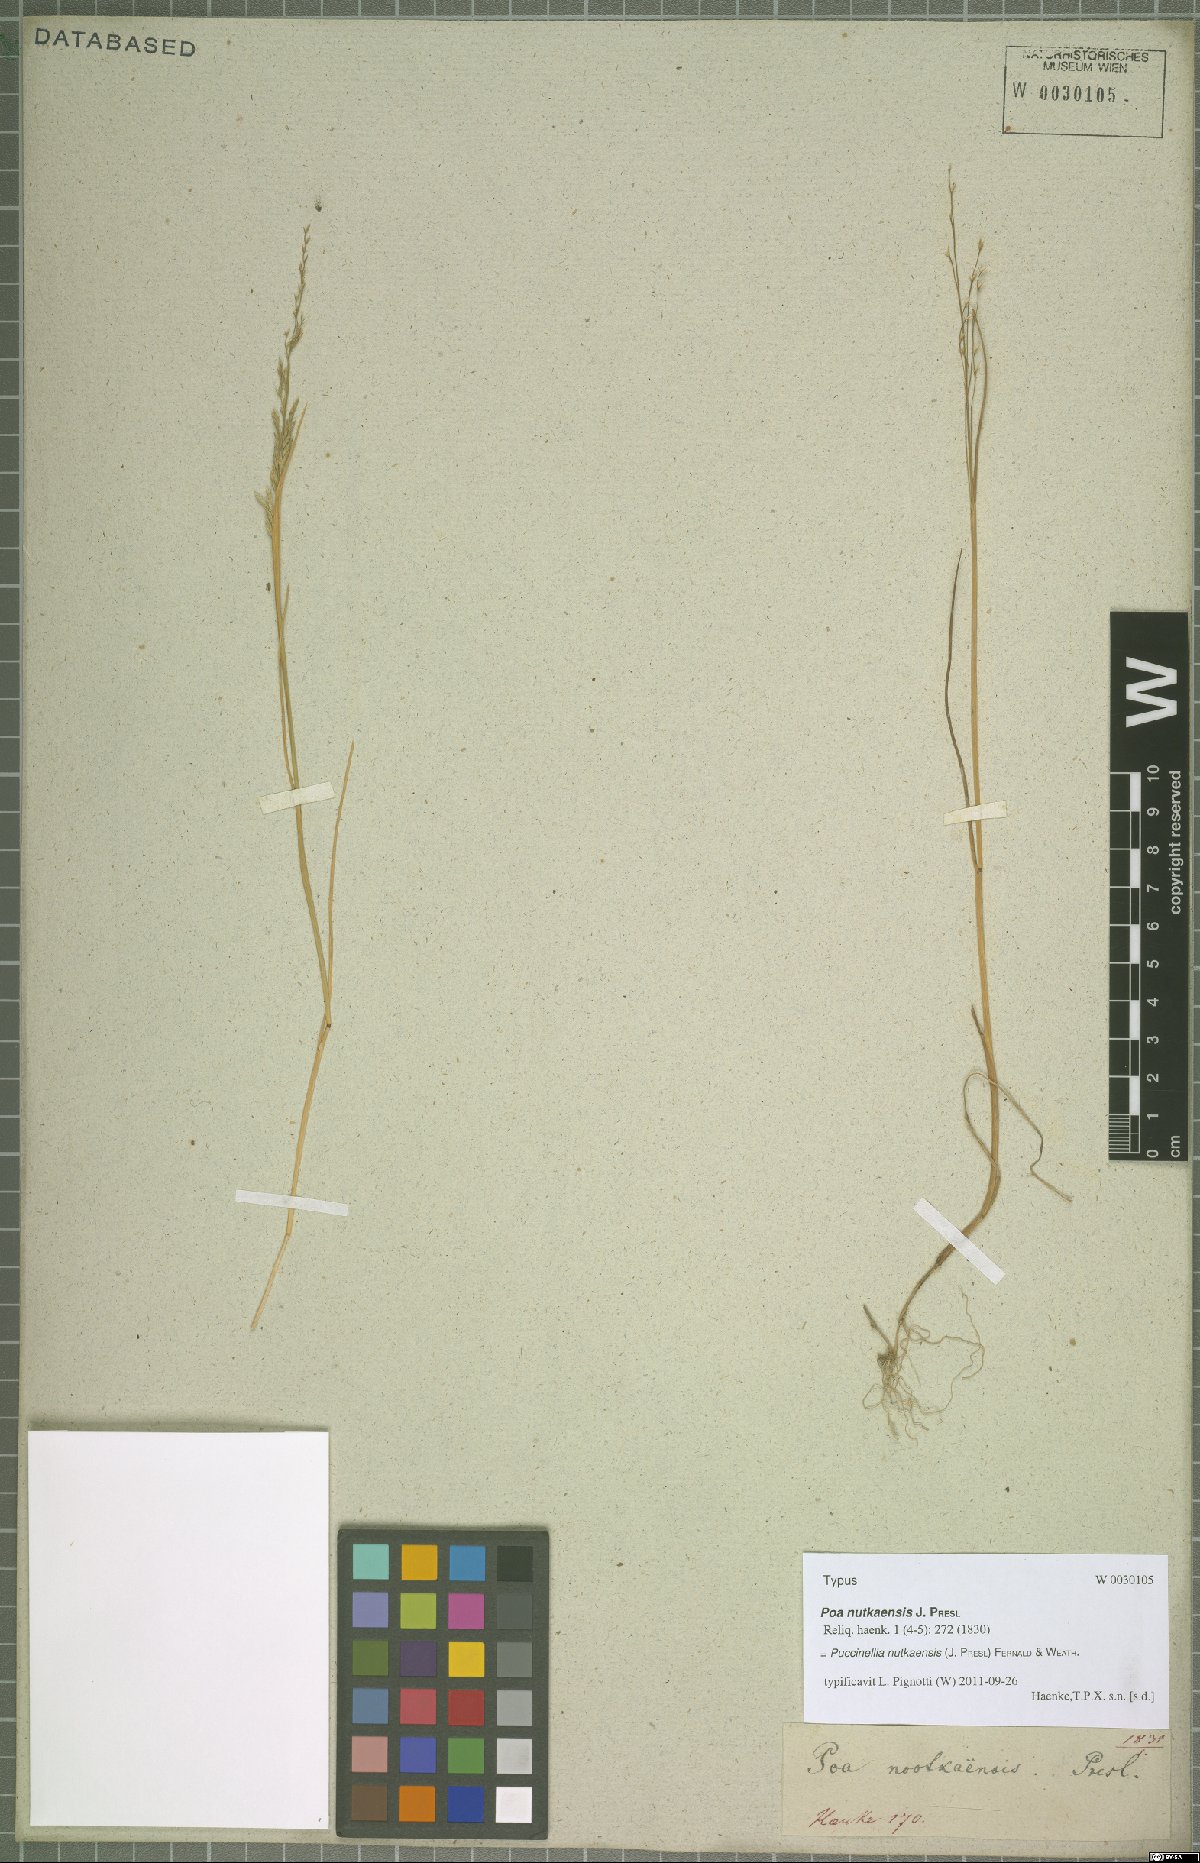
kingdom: Plantae
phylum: Tracheophyta
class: Liliopsida
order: Poales
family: Poaceae
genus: Puccinellia
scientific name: Puccinellia nutkaensis
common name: Nootka alkaligrass
